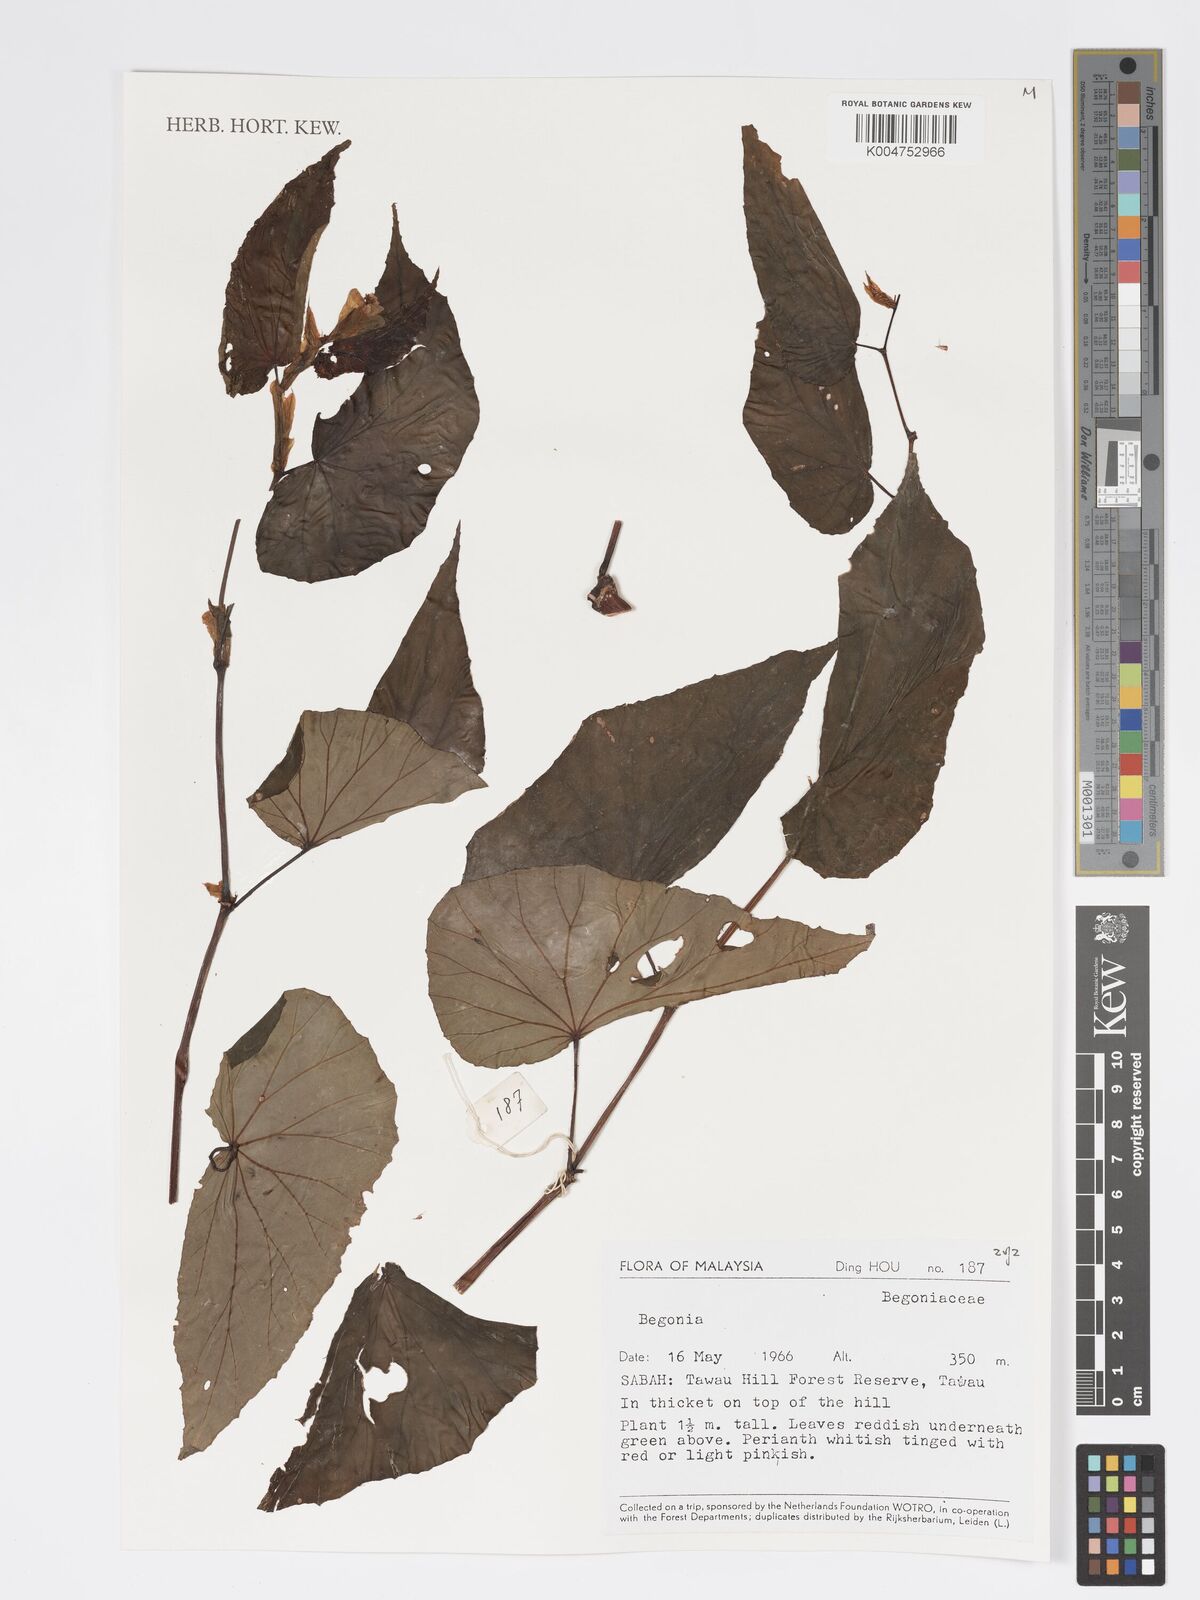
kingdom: Plantae
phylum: Tracheophyta
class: Magnoliopsida
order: Cucurbitales
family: Begoniaceae
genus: Begonia
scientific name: Begonia
